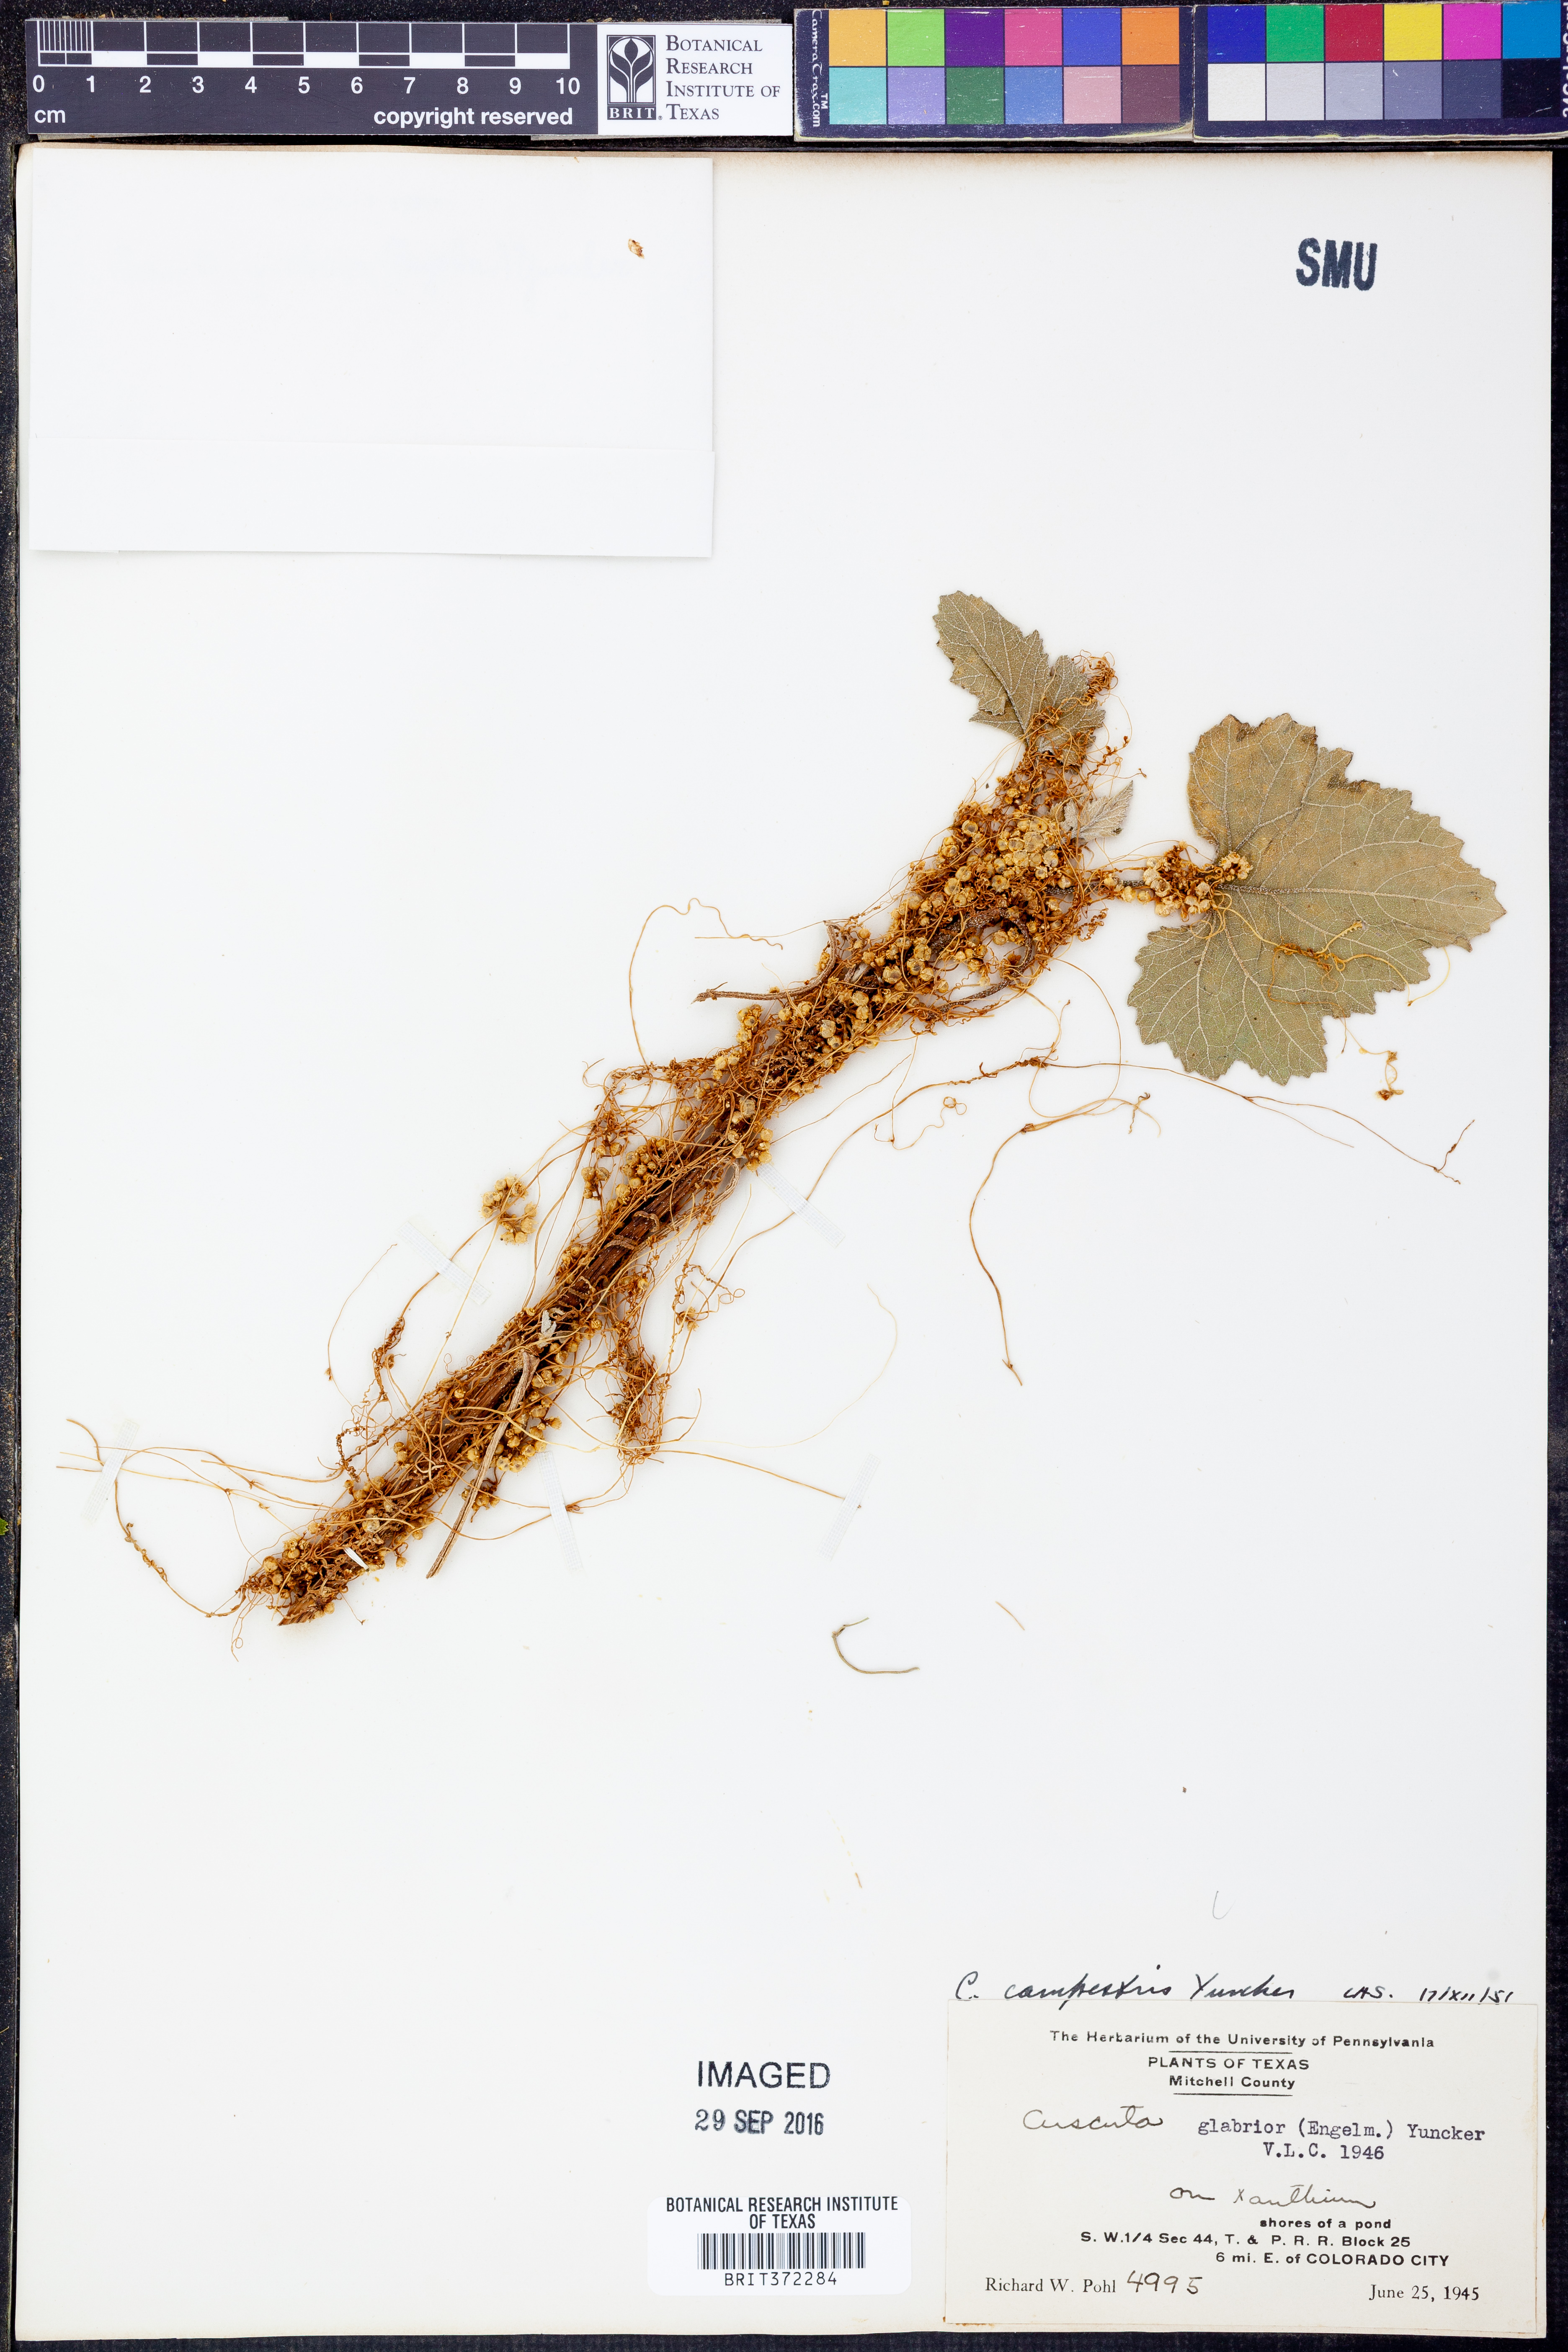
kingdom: Plantae
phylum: Tracheophyta
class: Magnoliopsida
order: Solanales
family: Convolvulaceae
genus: Cuscuta
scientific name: Cuscuta campestris
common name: Yellow dodder
